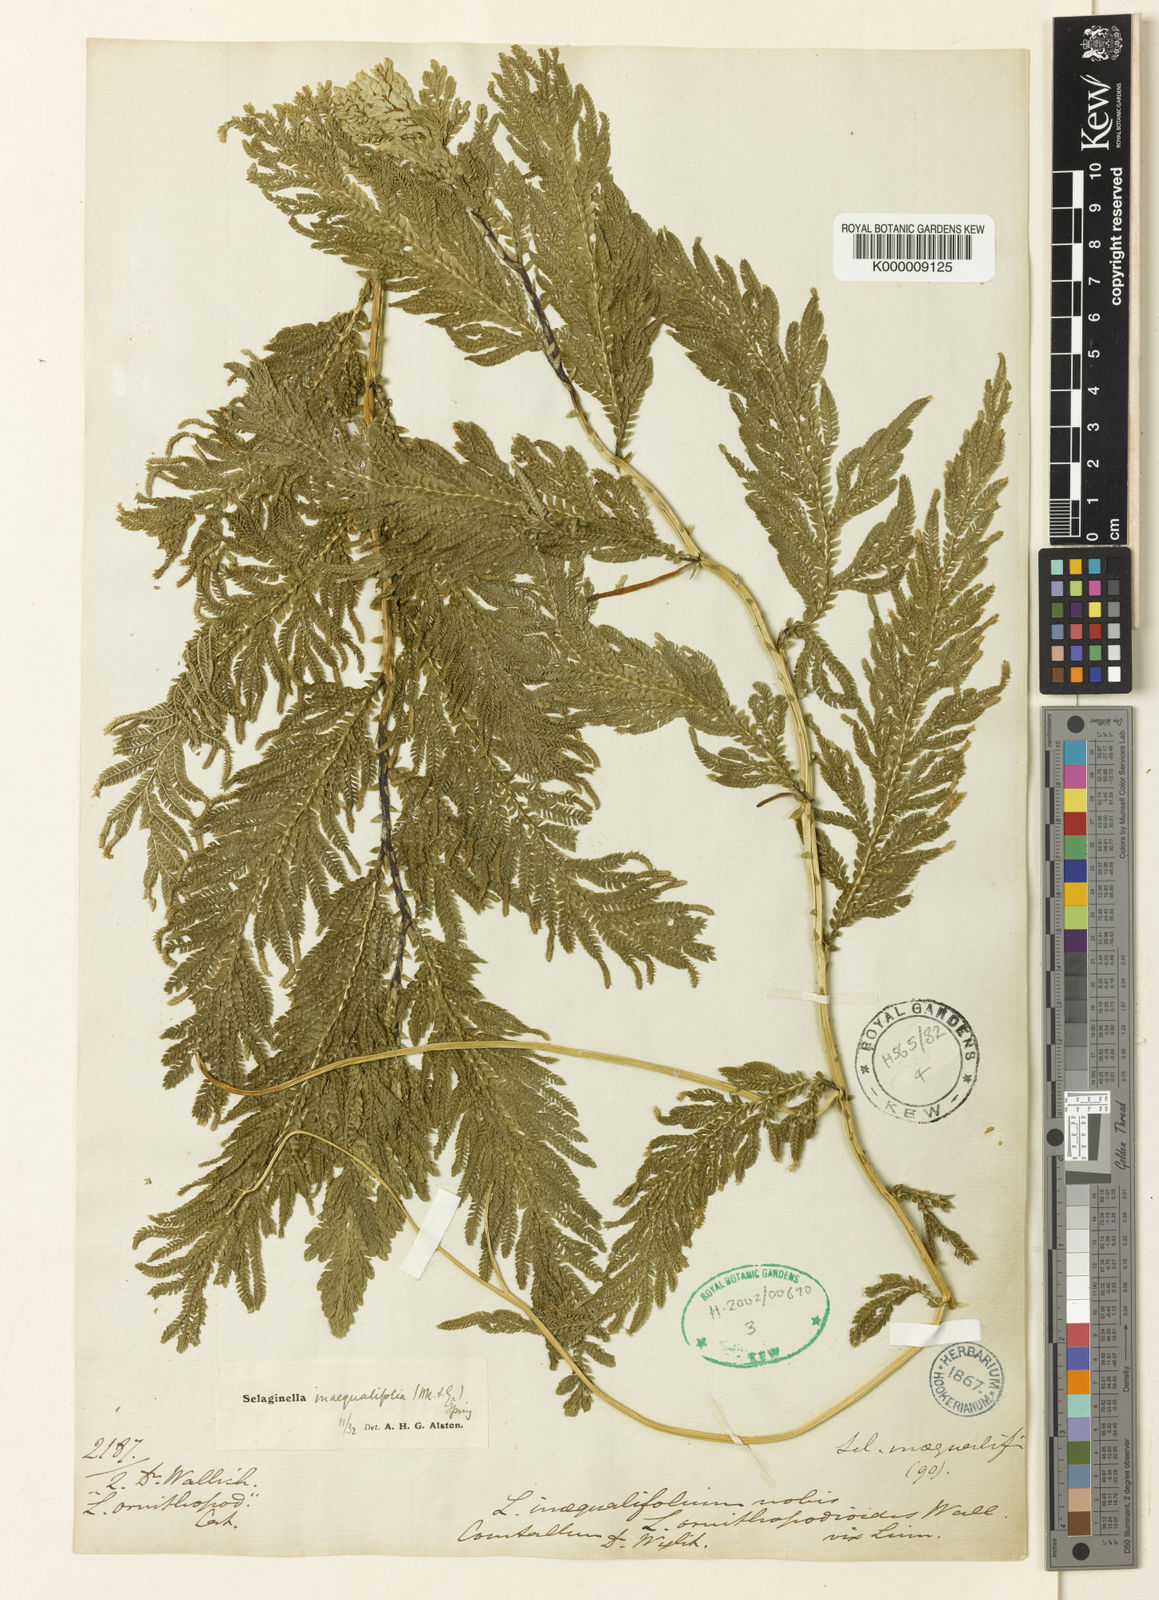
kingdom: Plantae
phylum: Tracheophyta
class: Lycopodiopsida
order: Selaginellales
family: Selaginellaceae
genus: Selaginella
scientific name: Selaginella inaequalifolia
